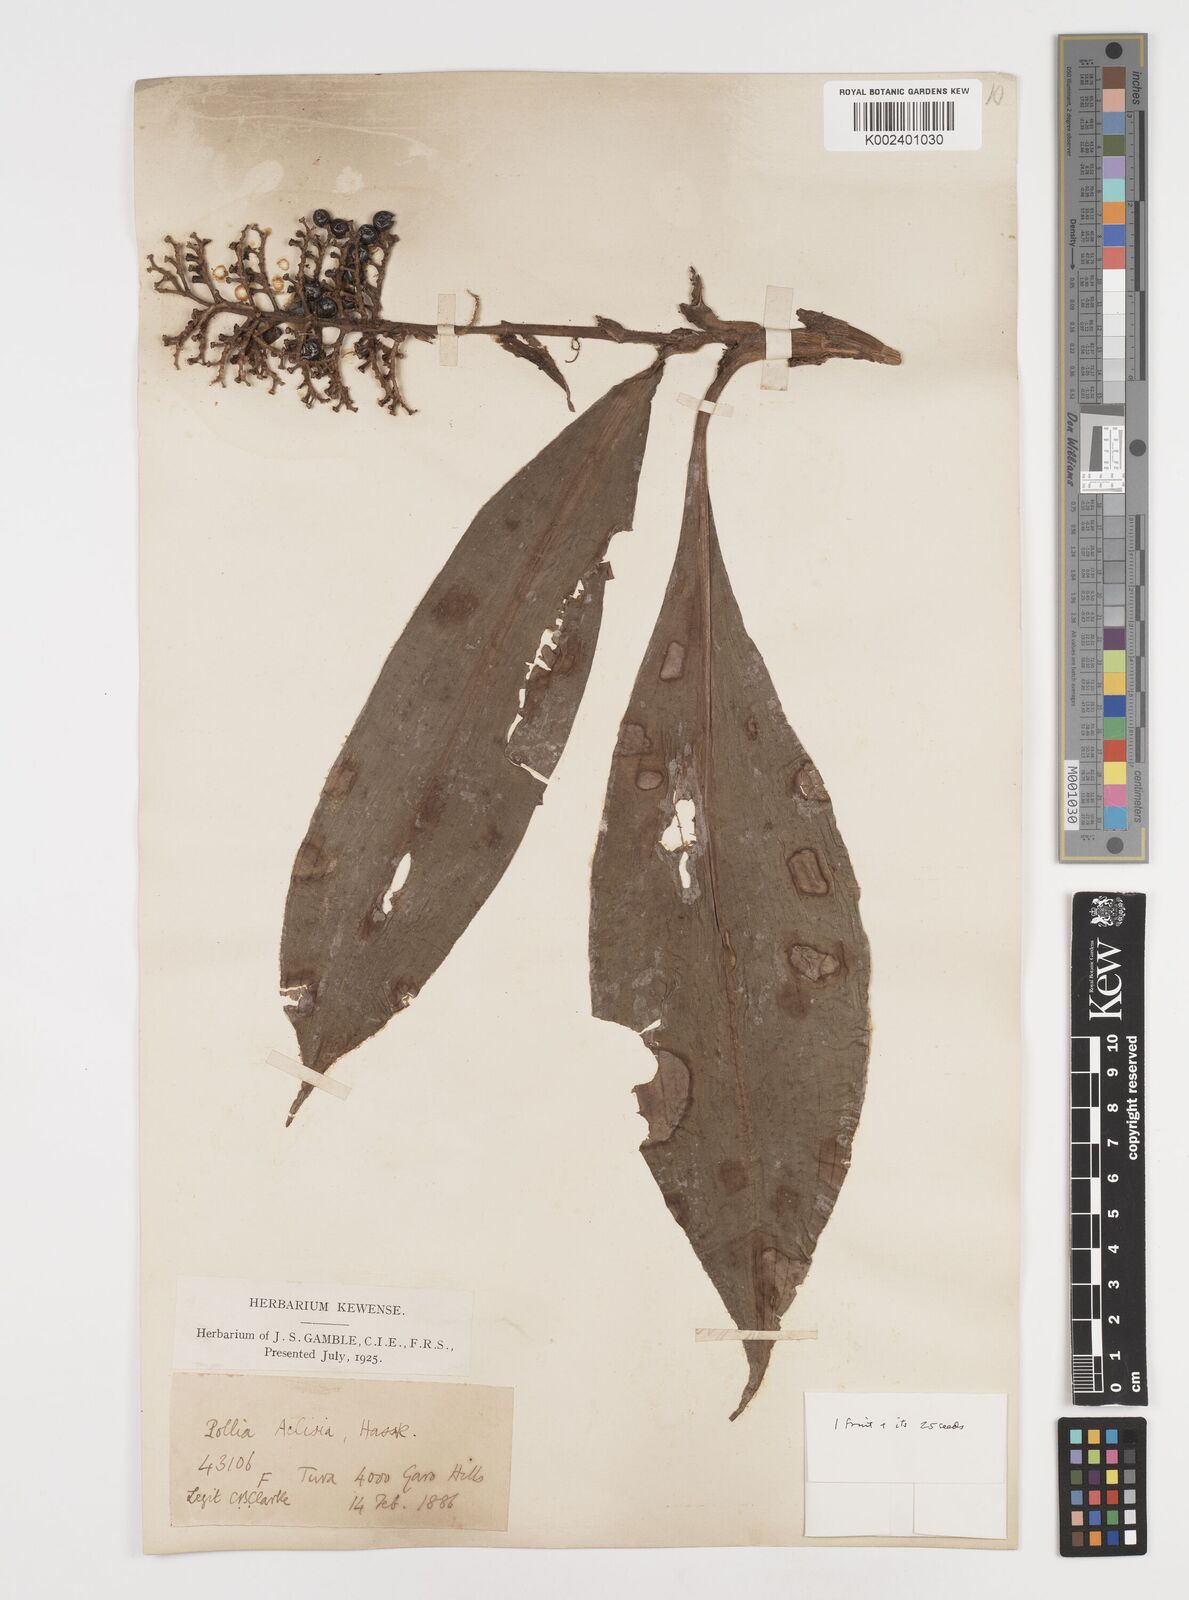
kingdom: Plantae
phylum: Tracheophyta
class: Liliopsida
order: Commelinales
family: Commelinaceae
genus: Pollia
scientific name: Pollia hasskarlii
